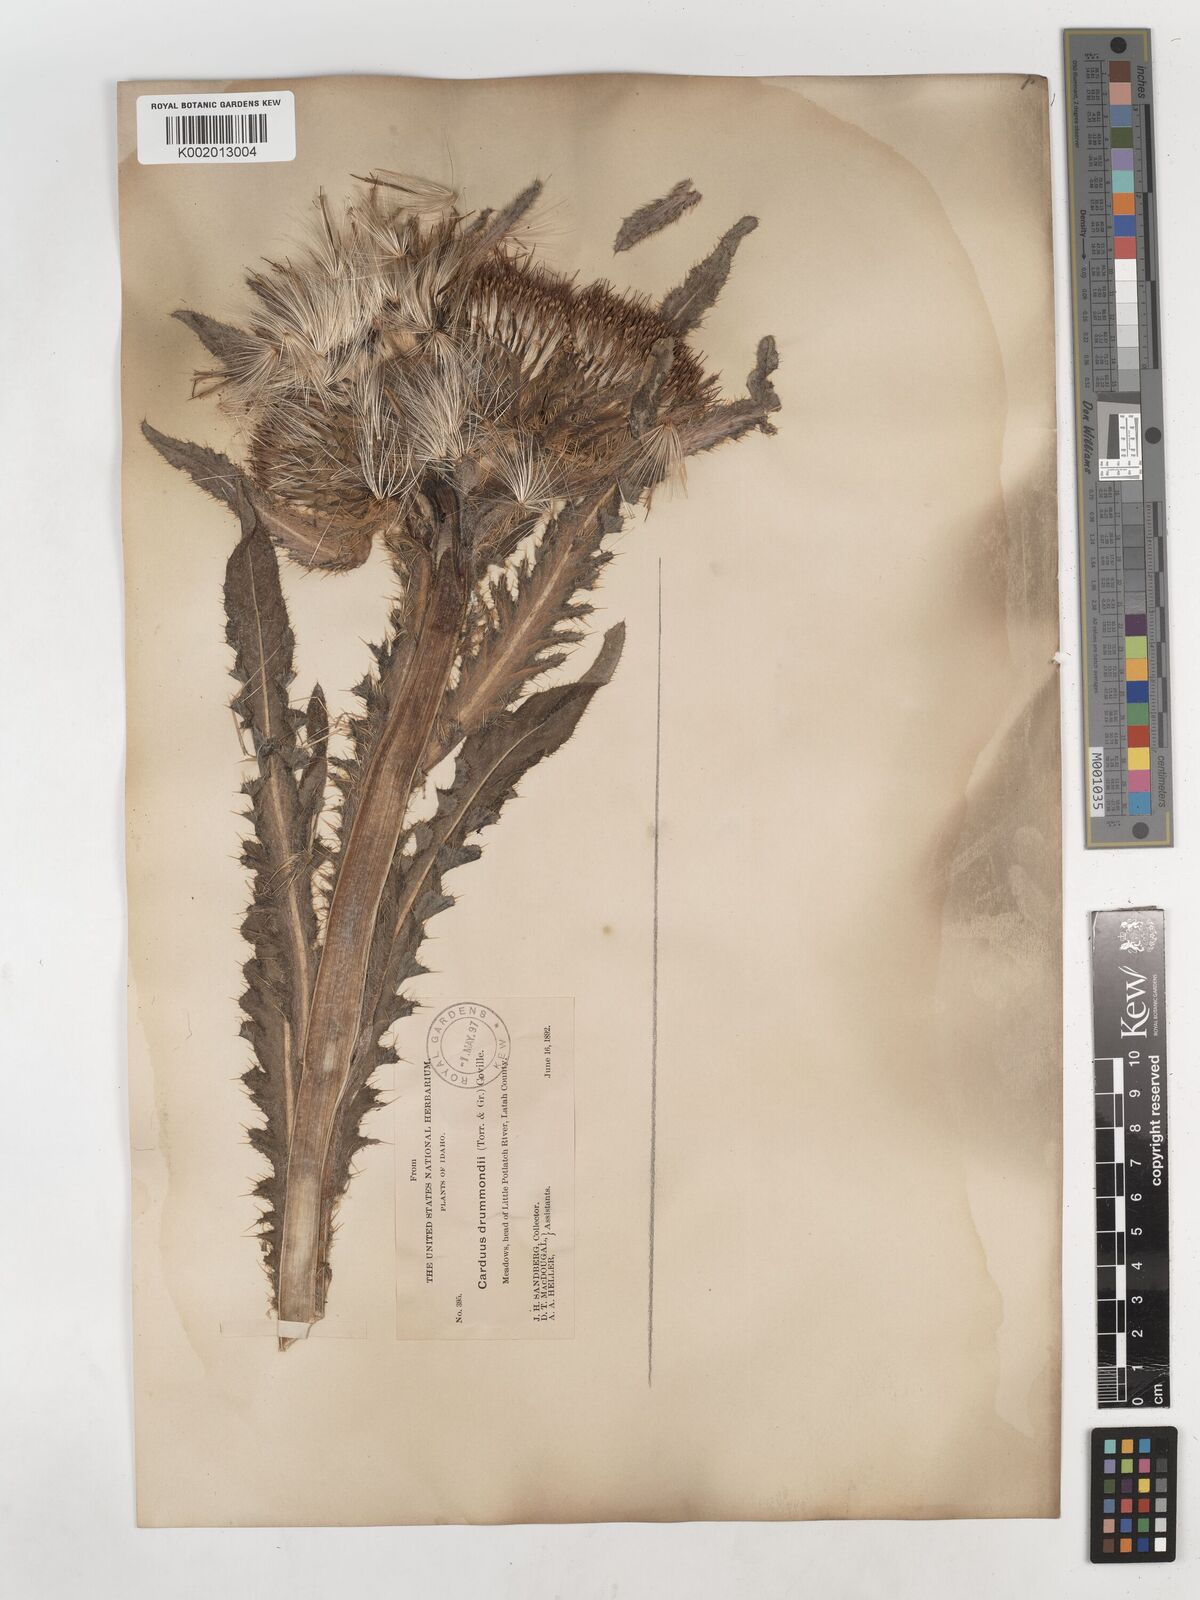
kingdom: Plantae
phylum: Tracheophyta
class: Magnoliopsida
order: Asterales
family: Asteraceae
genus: Cirsium
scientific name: Cirsium drummondii
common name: Drummond's thistle
